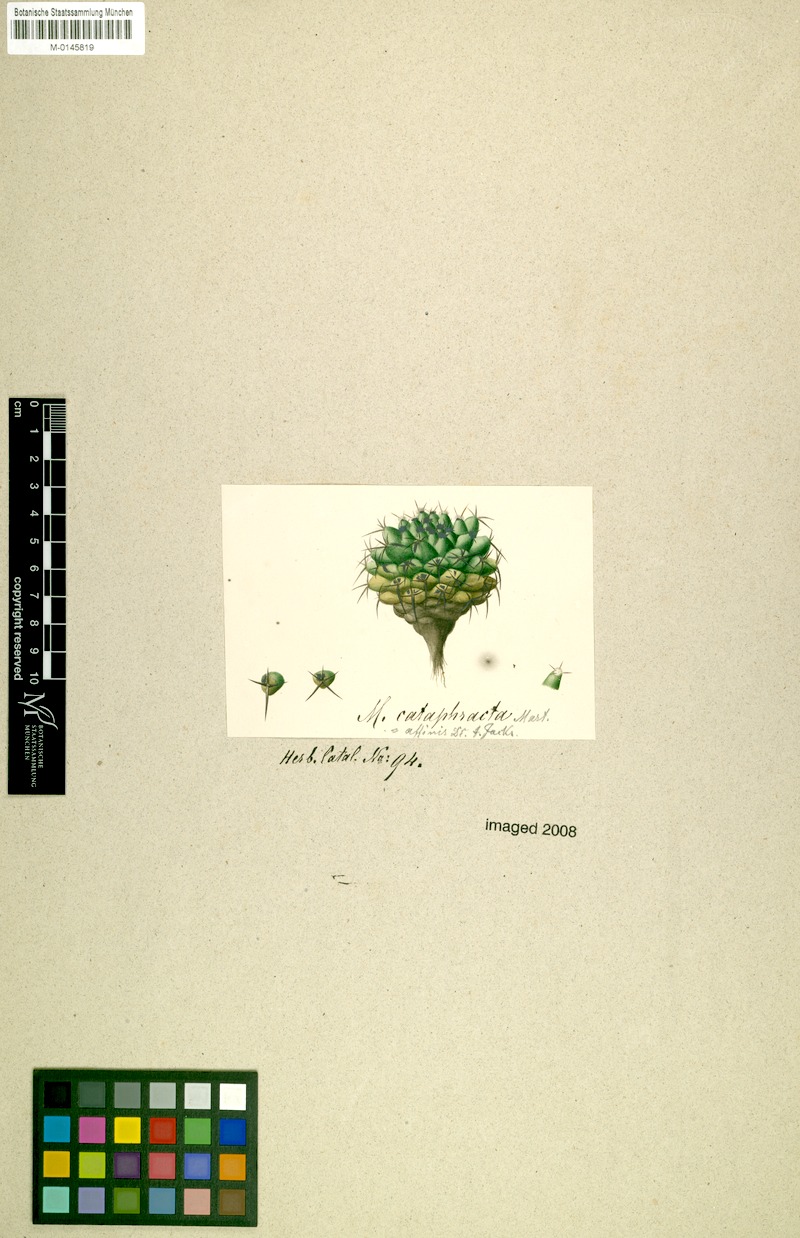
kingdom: Plantae
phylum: Tracheophyta
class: Magnoliopsida
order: Caryophyllales
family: Cactaceae
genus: Mammillaria
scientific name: Mammillaria polythele
